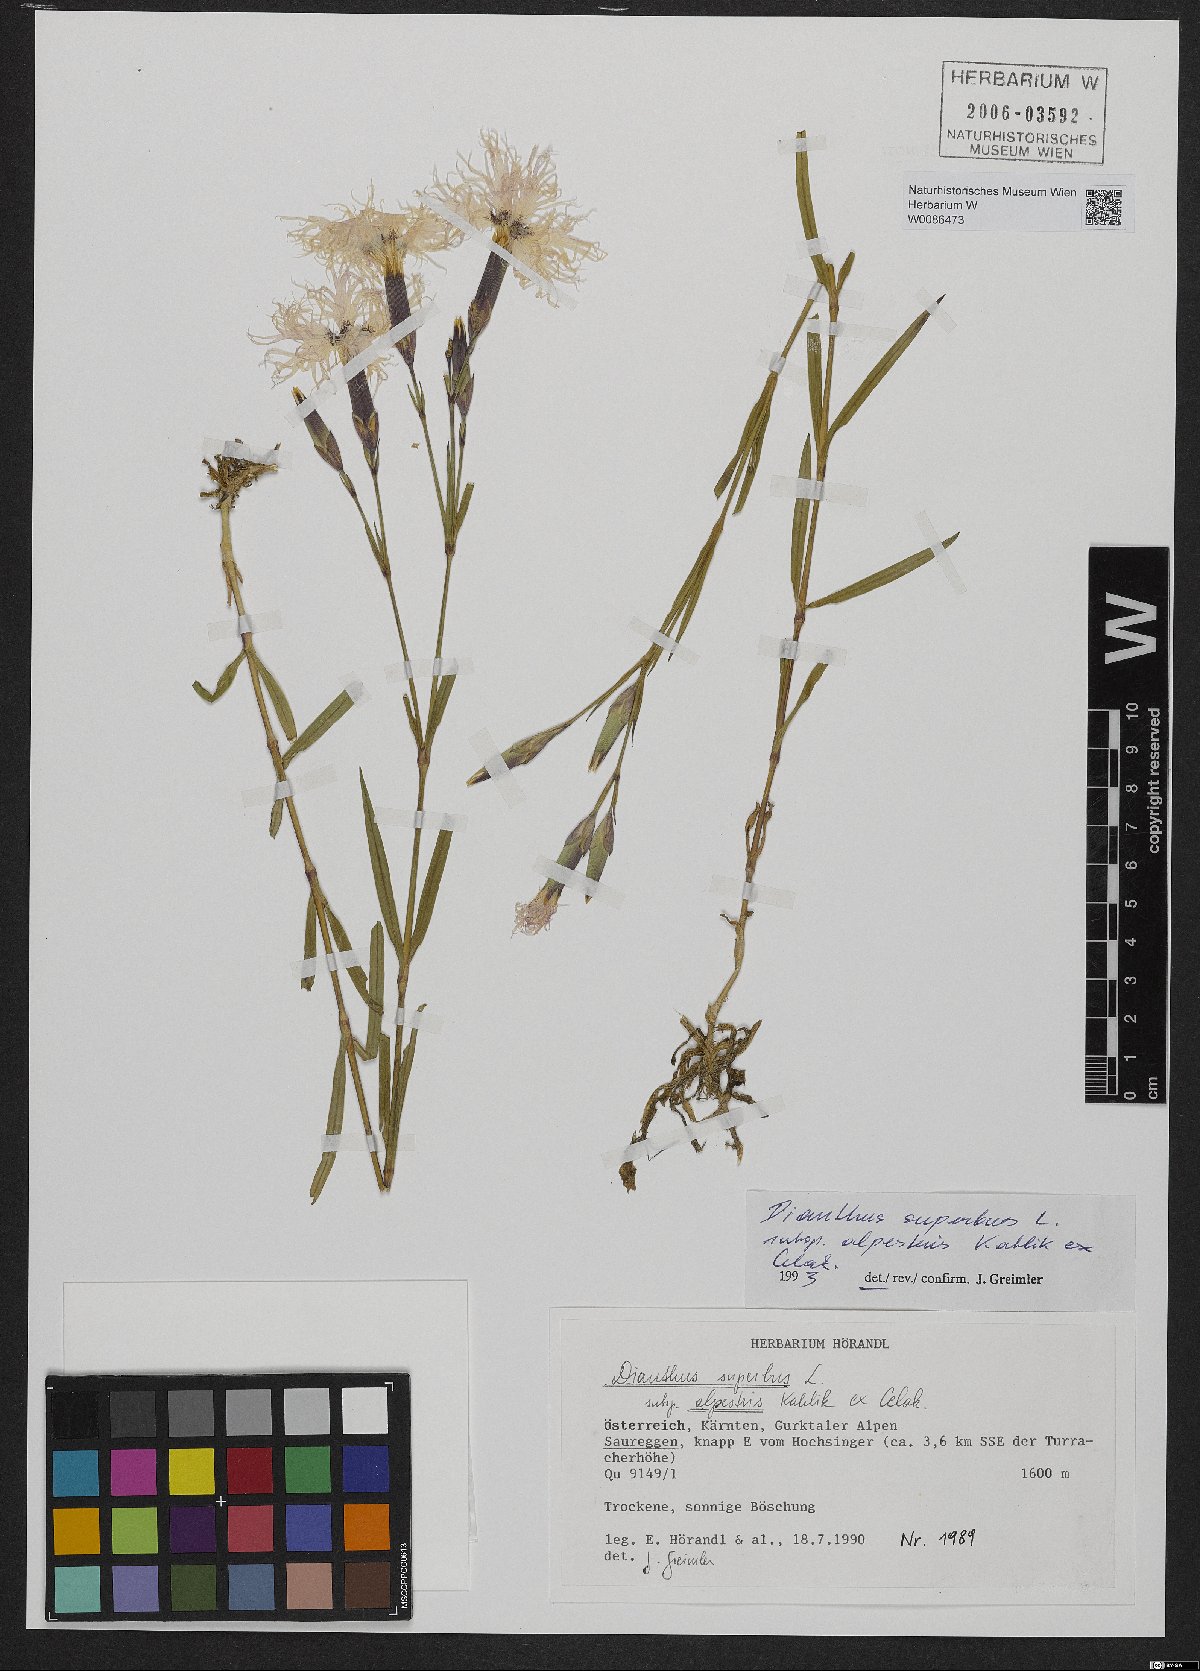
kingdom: Plantae
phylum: Tracheophyta
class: Magnoliopsida
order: Caryophyllales
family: Caryophyllaceae
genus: Dianthus
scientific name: Dianthus superbus
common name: Fringed pink
